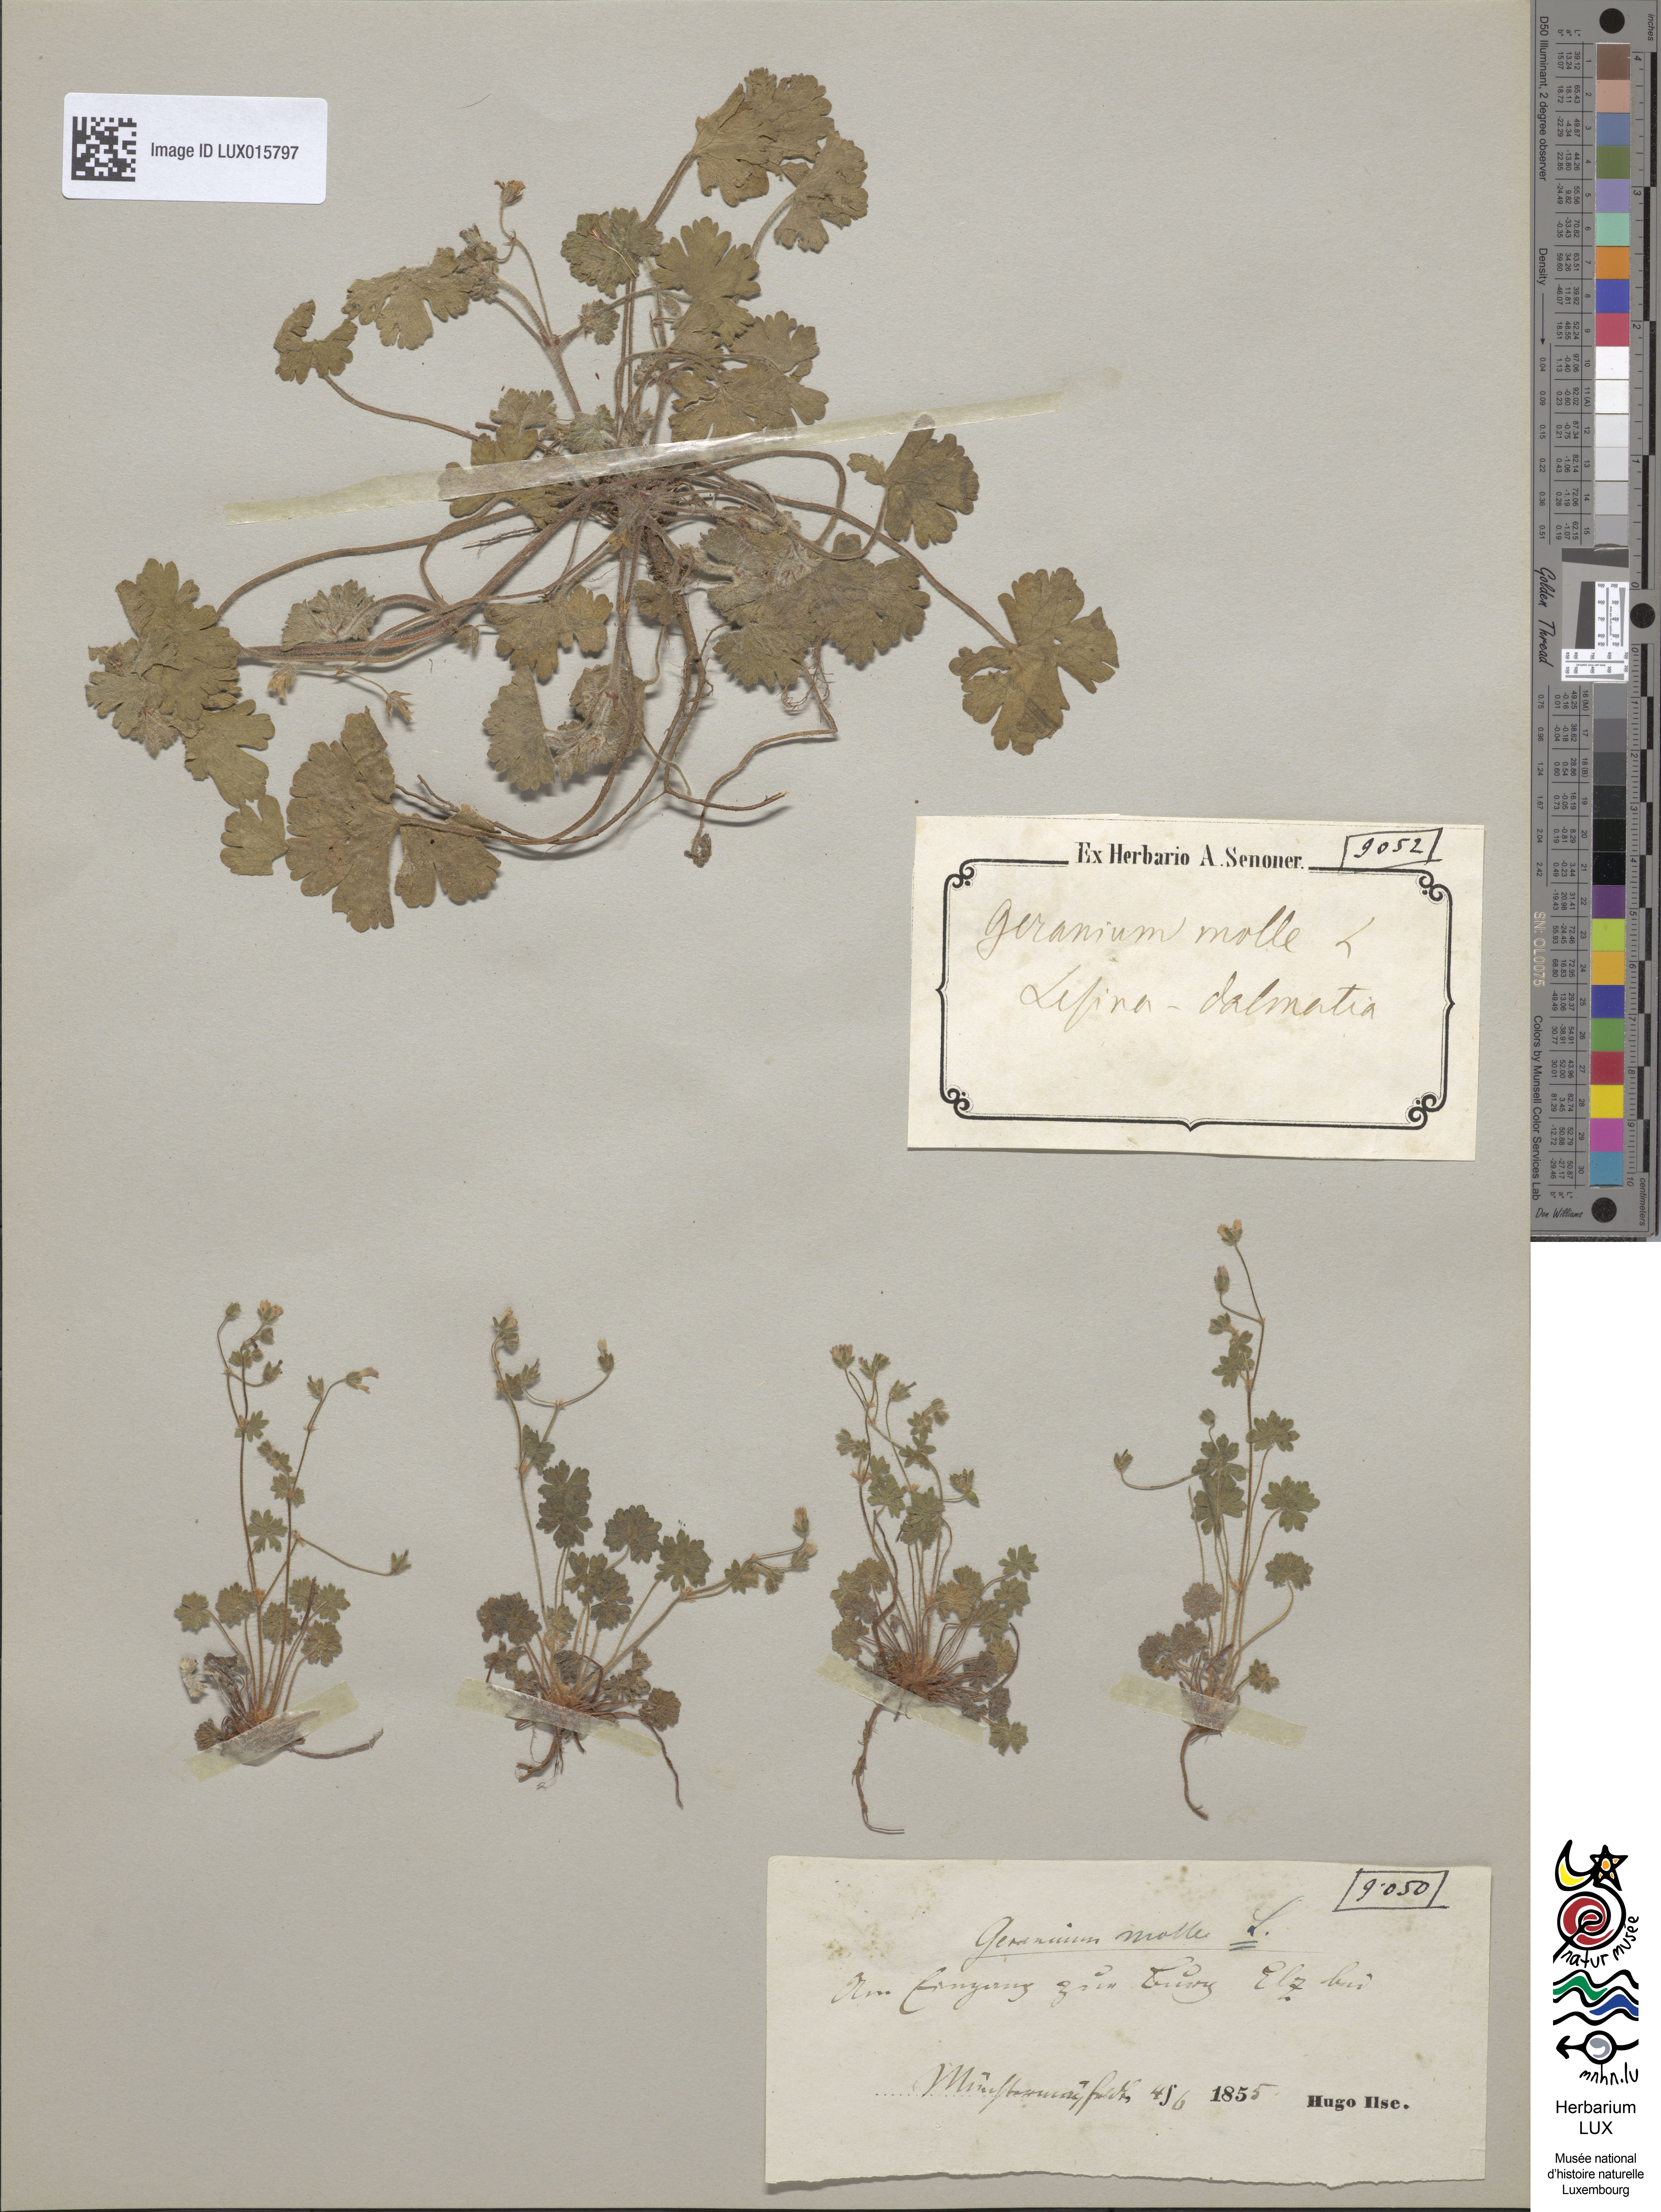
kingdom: Plantae
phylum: Tracheophyta
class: Magnoliopsida
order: Geraniales
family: Geraniaceae
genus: Geranium
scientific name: Geranium molle
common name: Dove's-foot crane's-bill
